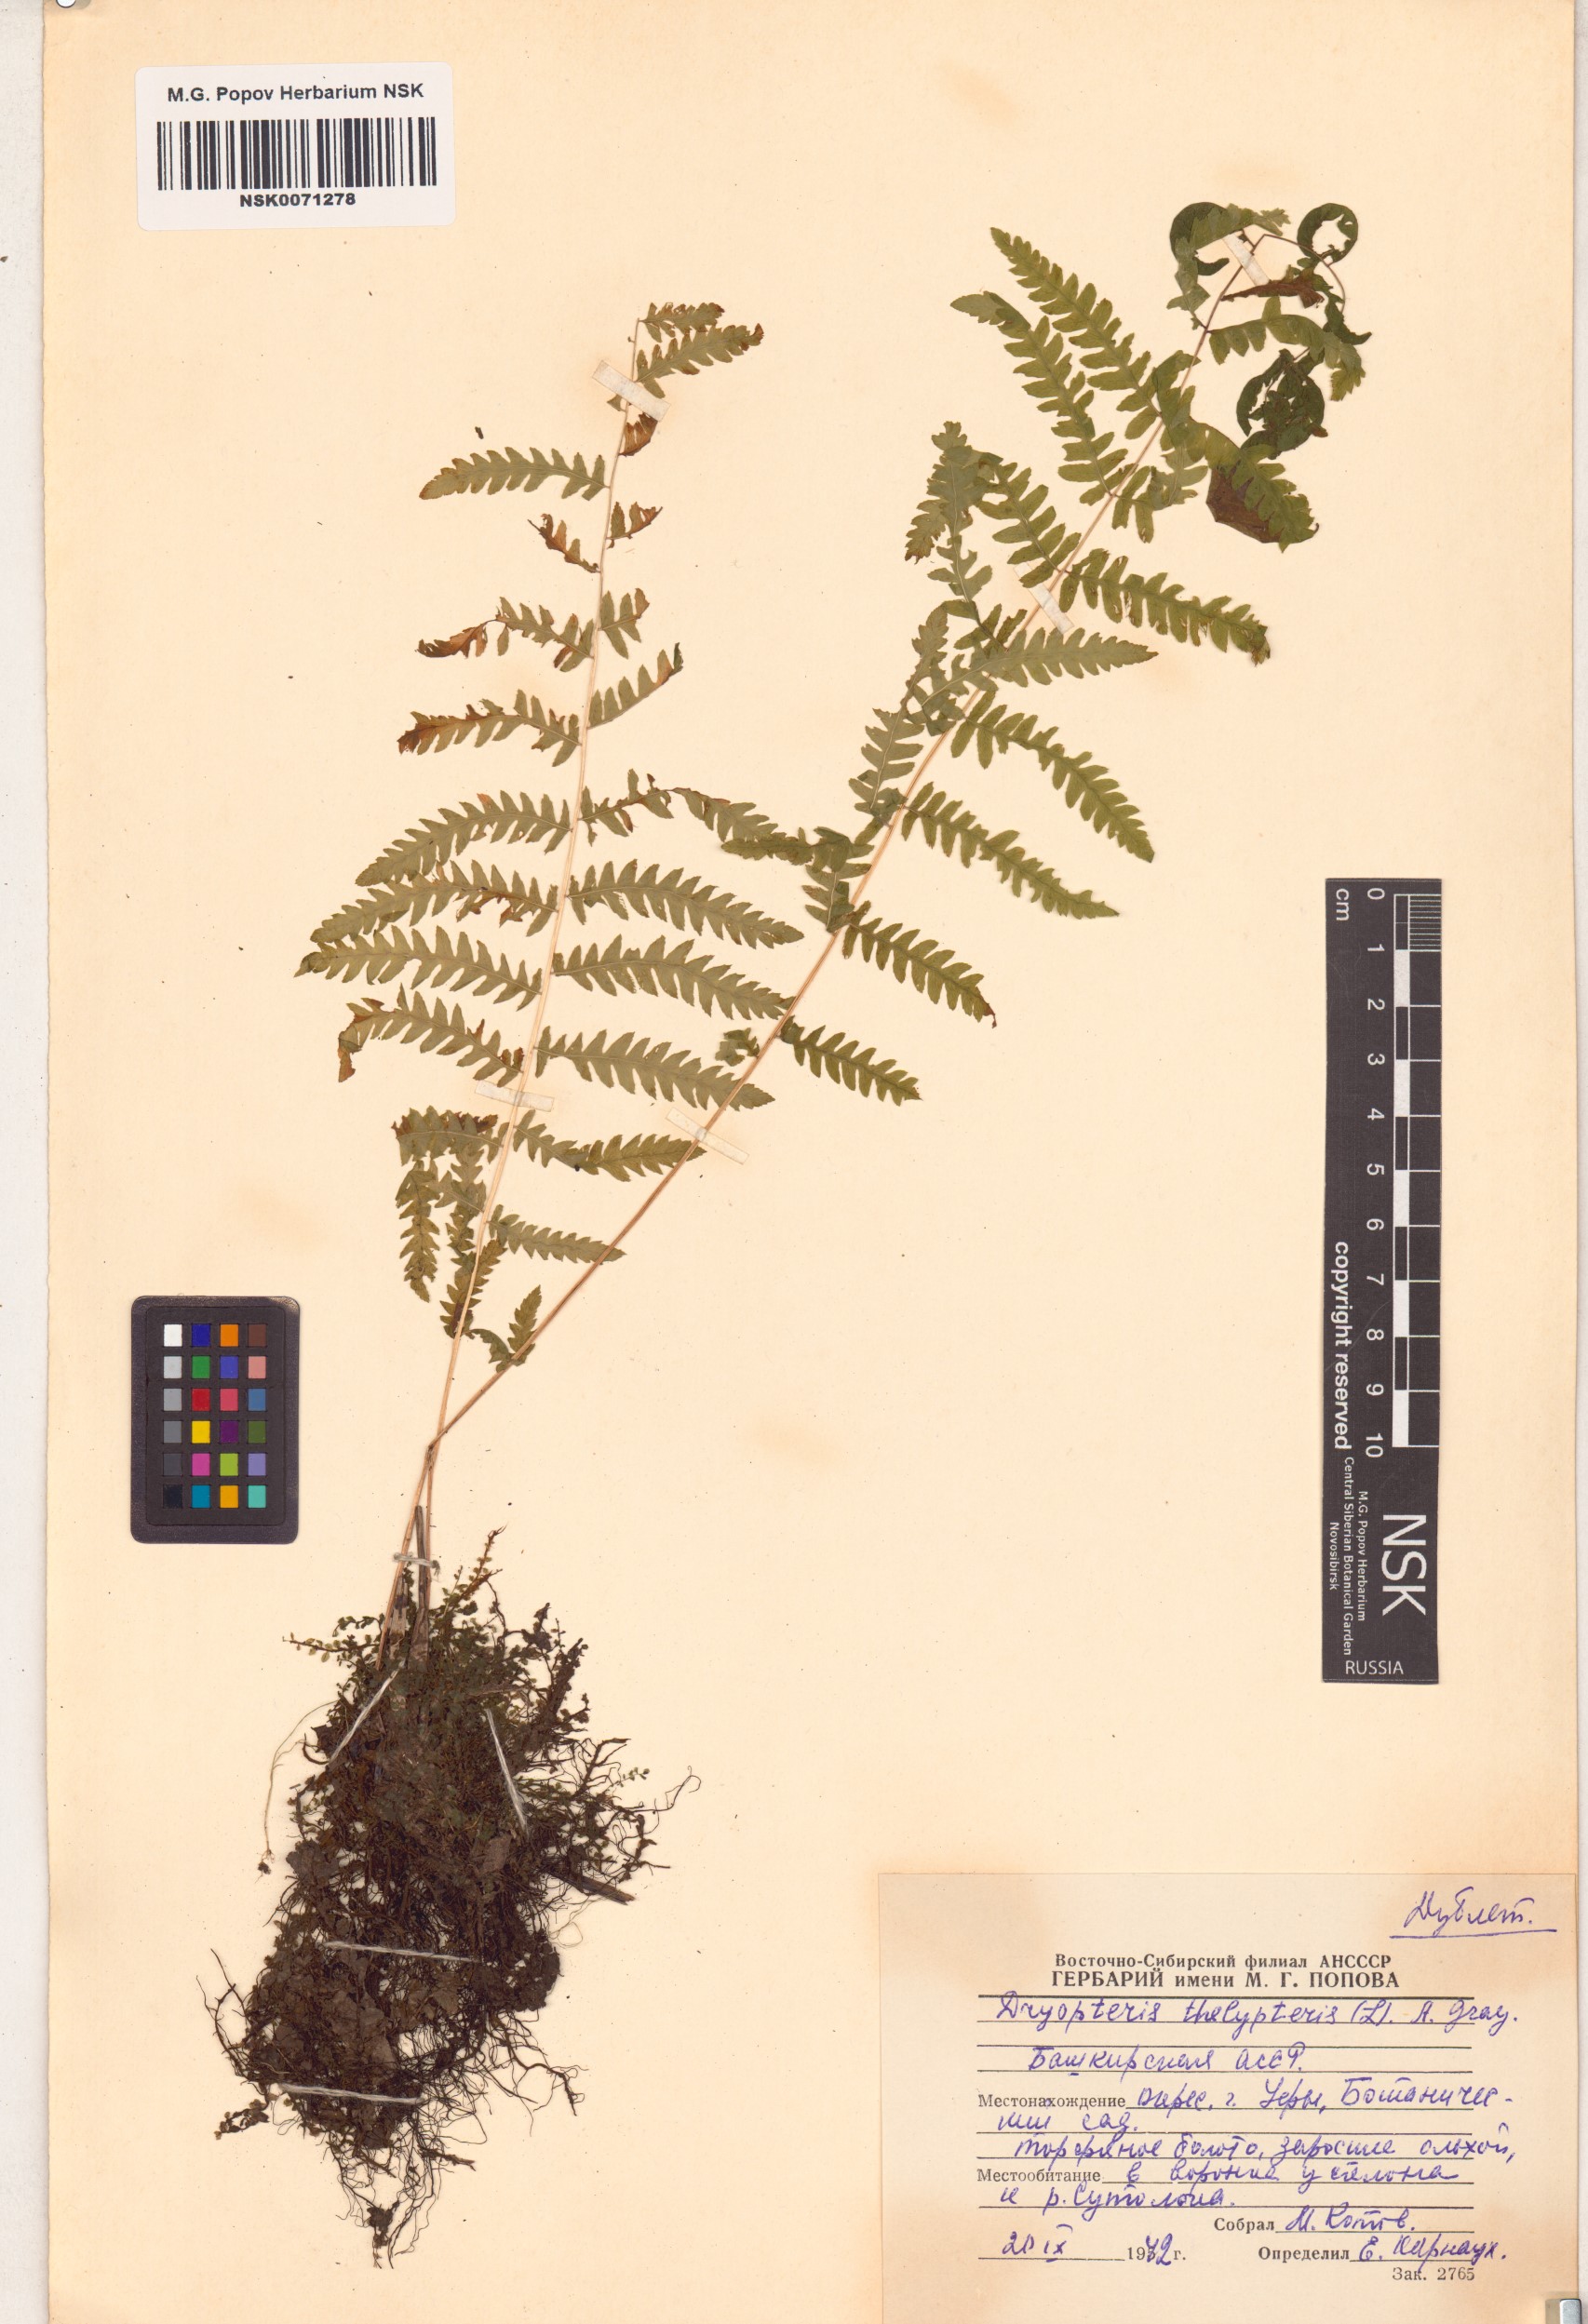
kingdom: Plantae
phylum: Tracheophyta
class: Polypodiopsida
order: Polypodiales
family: Thelypteridaceae
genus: Thelypteris
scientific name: Thelypteris palustris
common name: Marsh fern
